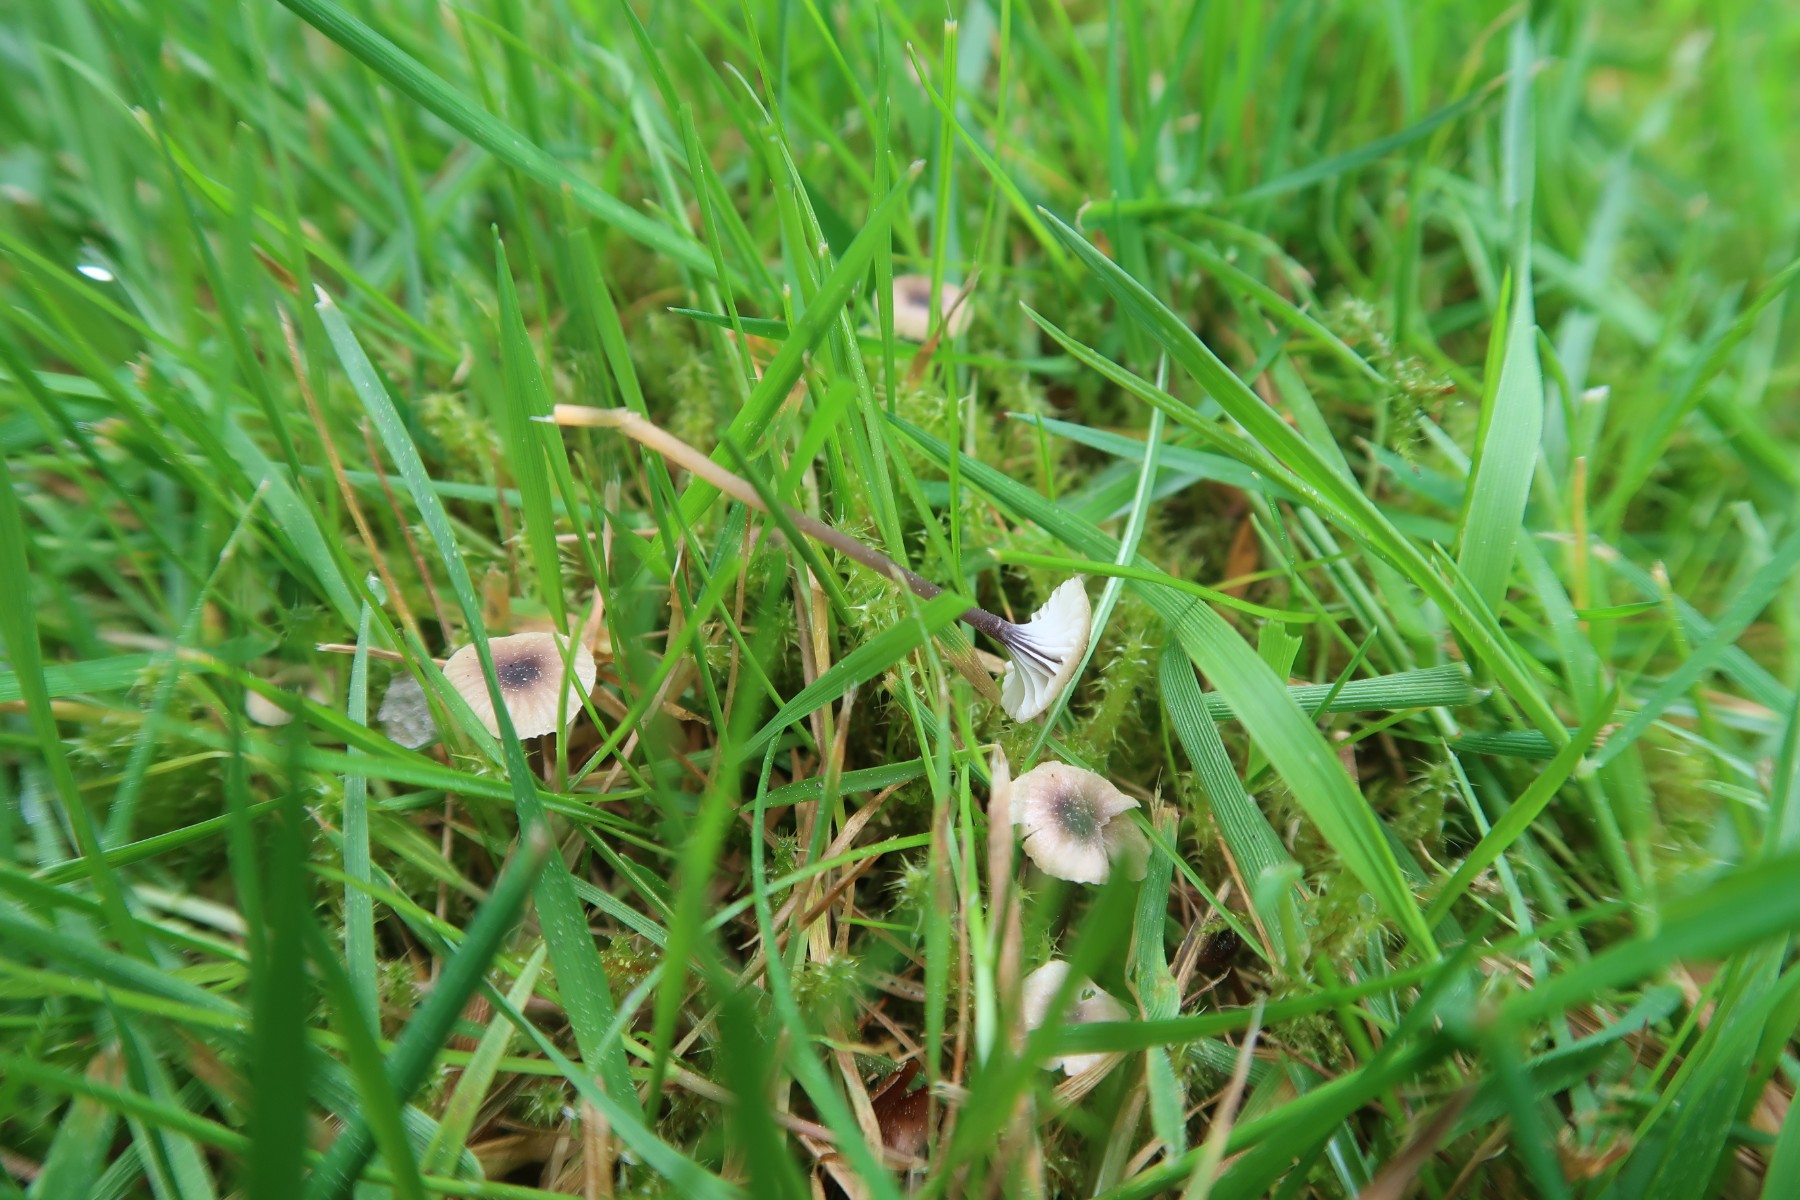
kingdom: Fungi
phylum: Basidiomycota
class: Agaricomycetes
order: Hymenochaetales
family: Rickenellaceae
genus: Rickenella
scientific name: Rickenella swartzii
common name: finstokket mosnavlehat
